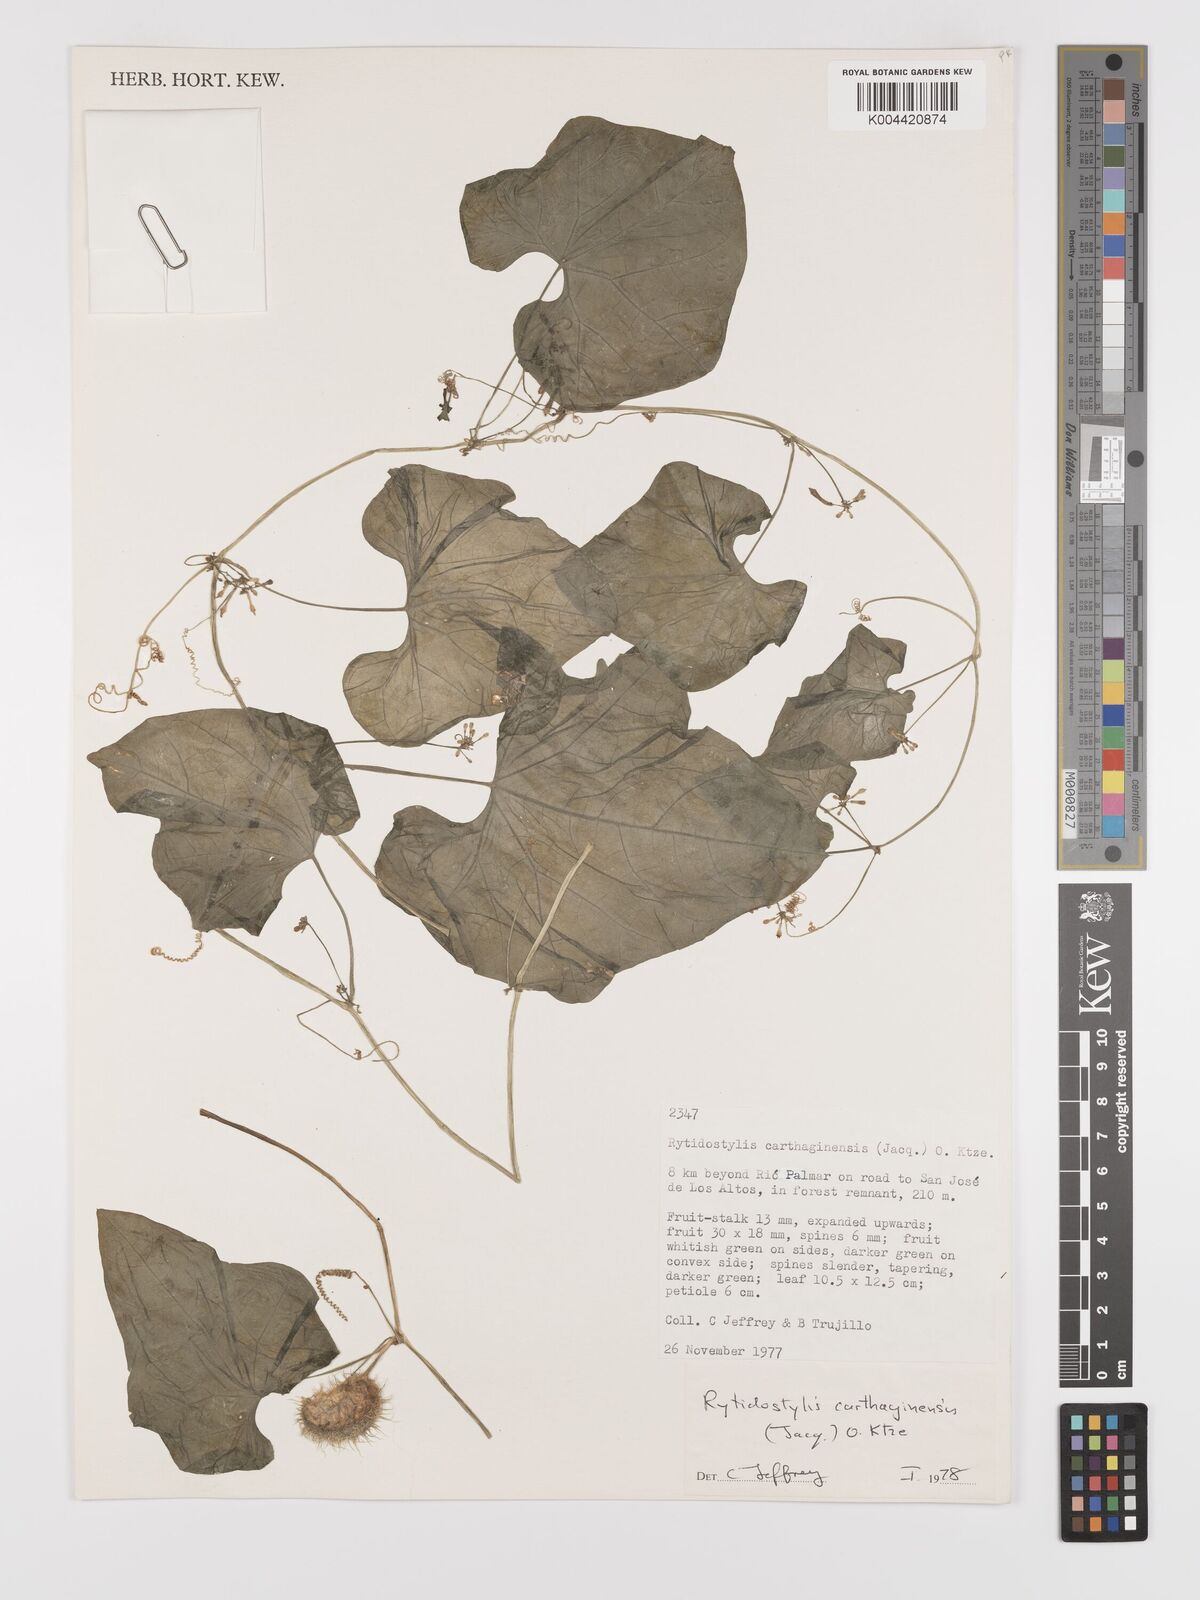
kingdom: Plantae
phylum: Tracheophyta
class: Magnoliopsida
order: Cucurbitales
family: Cucurbitaceae
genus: Cyclanthera
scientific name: Cyclanthera carthagenensis
